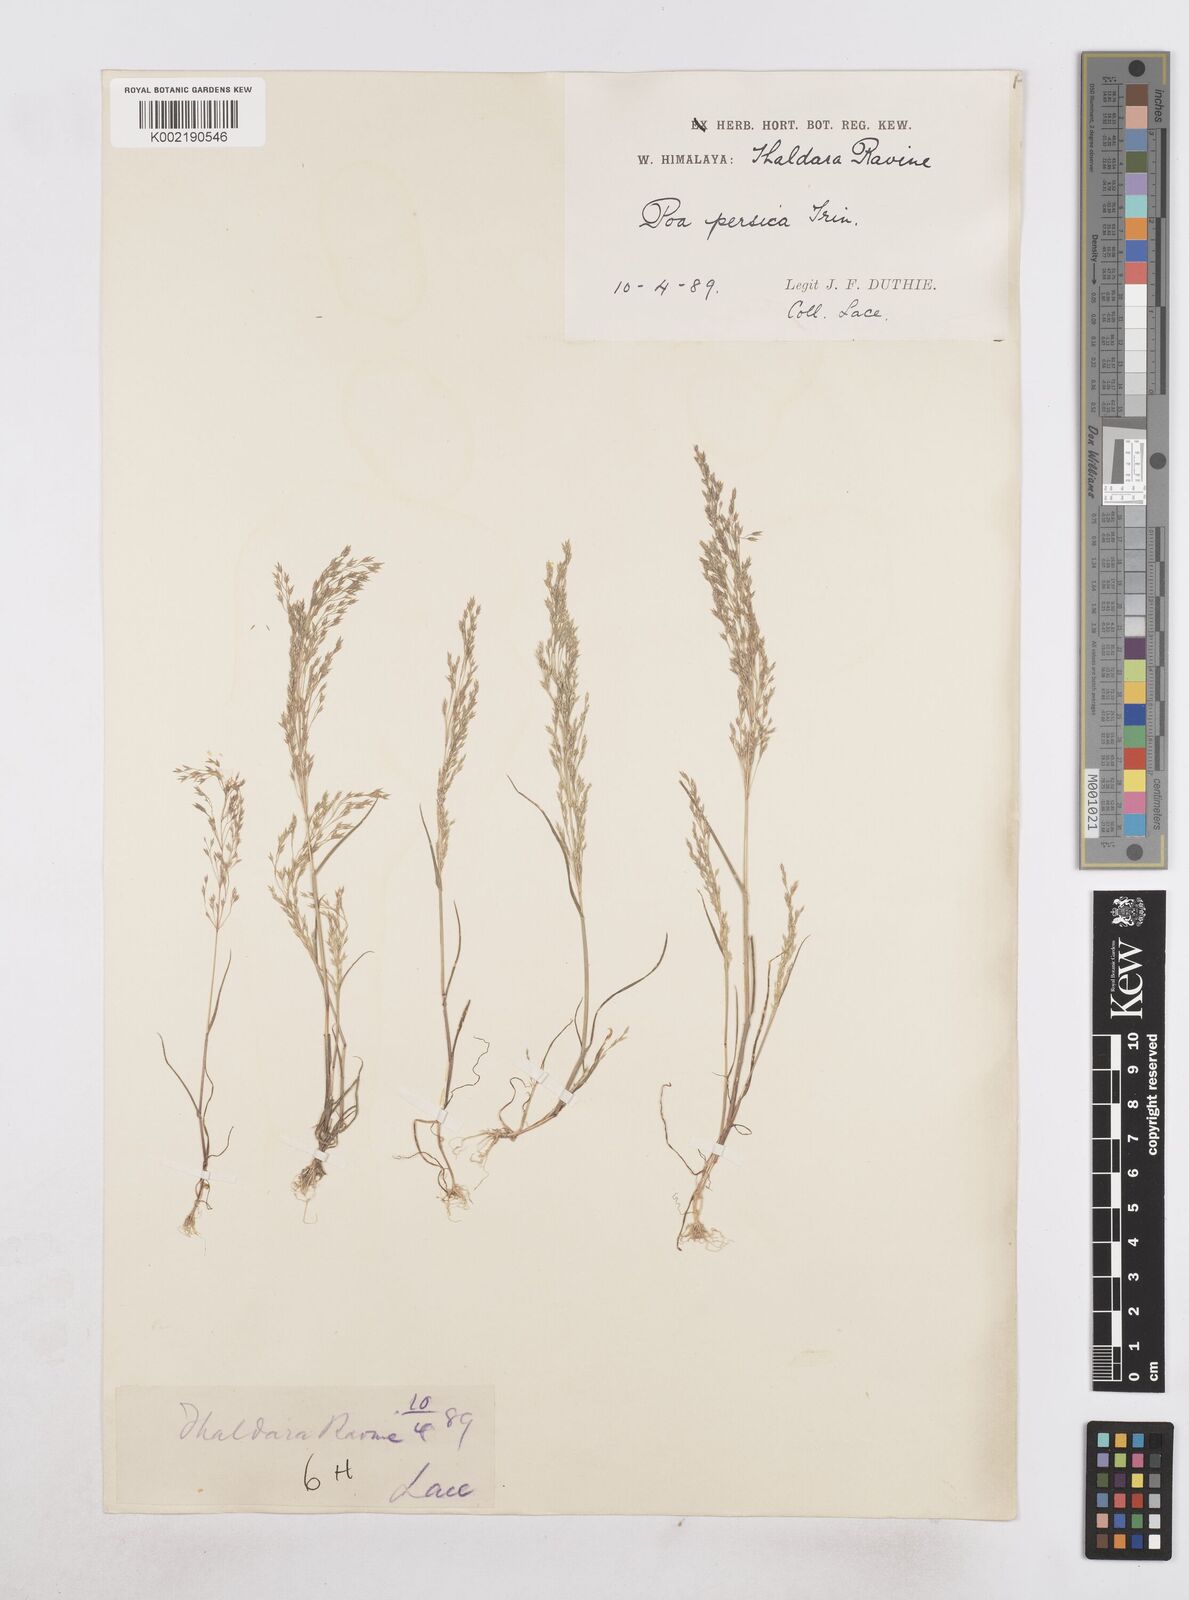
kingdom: Plantae
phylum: Tracheophyta
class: Liliopsida
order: Poales
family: Poaceae
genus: Poa
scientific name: Poa diaphora
